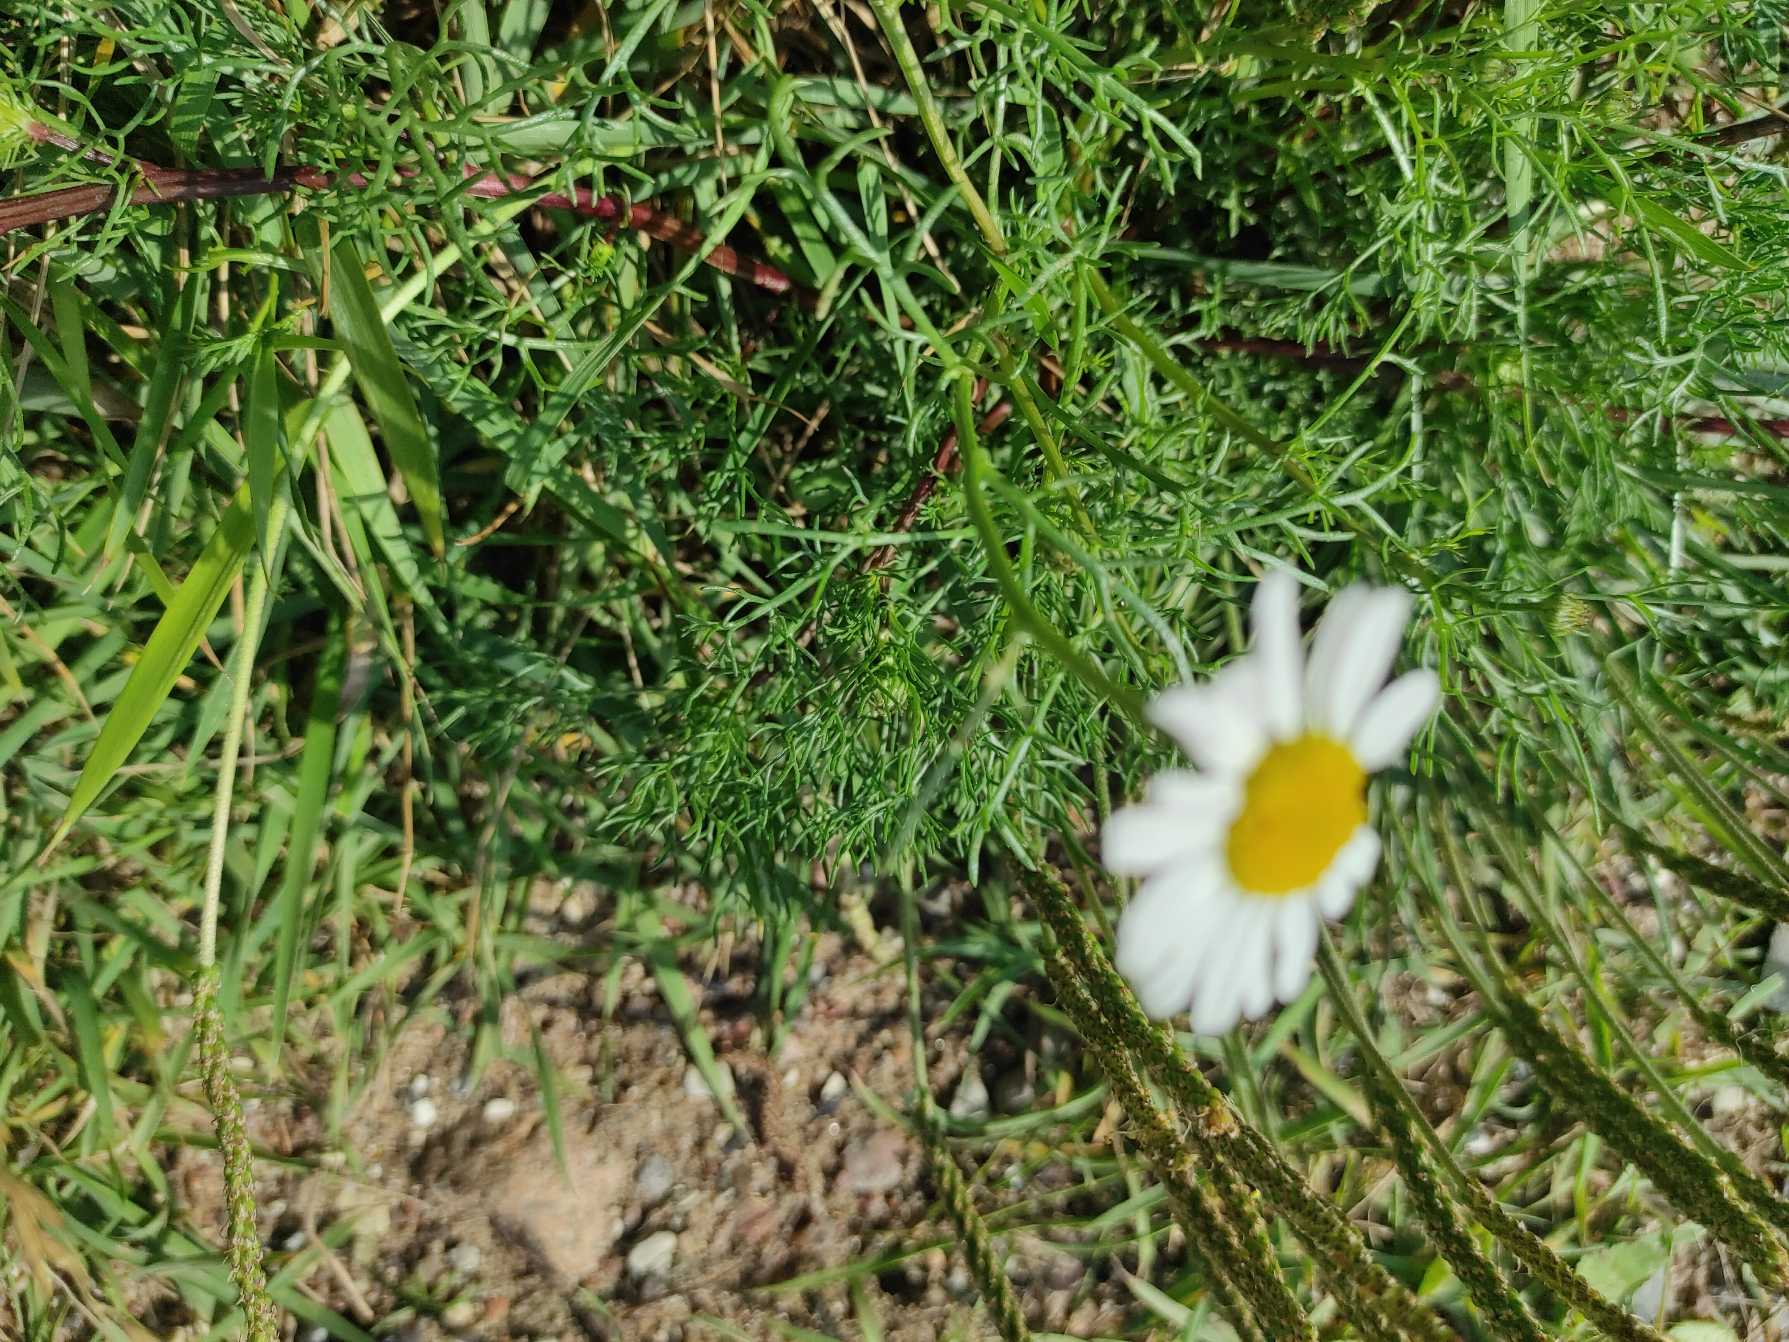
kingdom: Plantae
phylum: Tracheophyta
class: Magnoliopsida
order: Asterales
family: Asteraceae
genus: Tripleurospermum
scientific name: Tripleurospermum maritimum
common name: Strand-kamille
